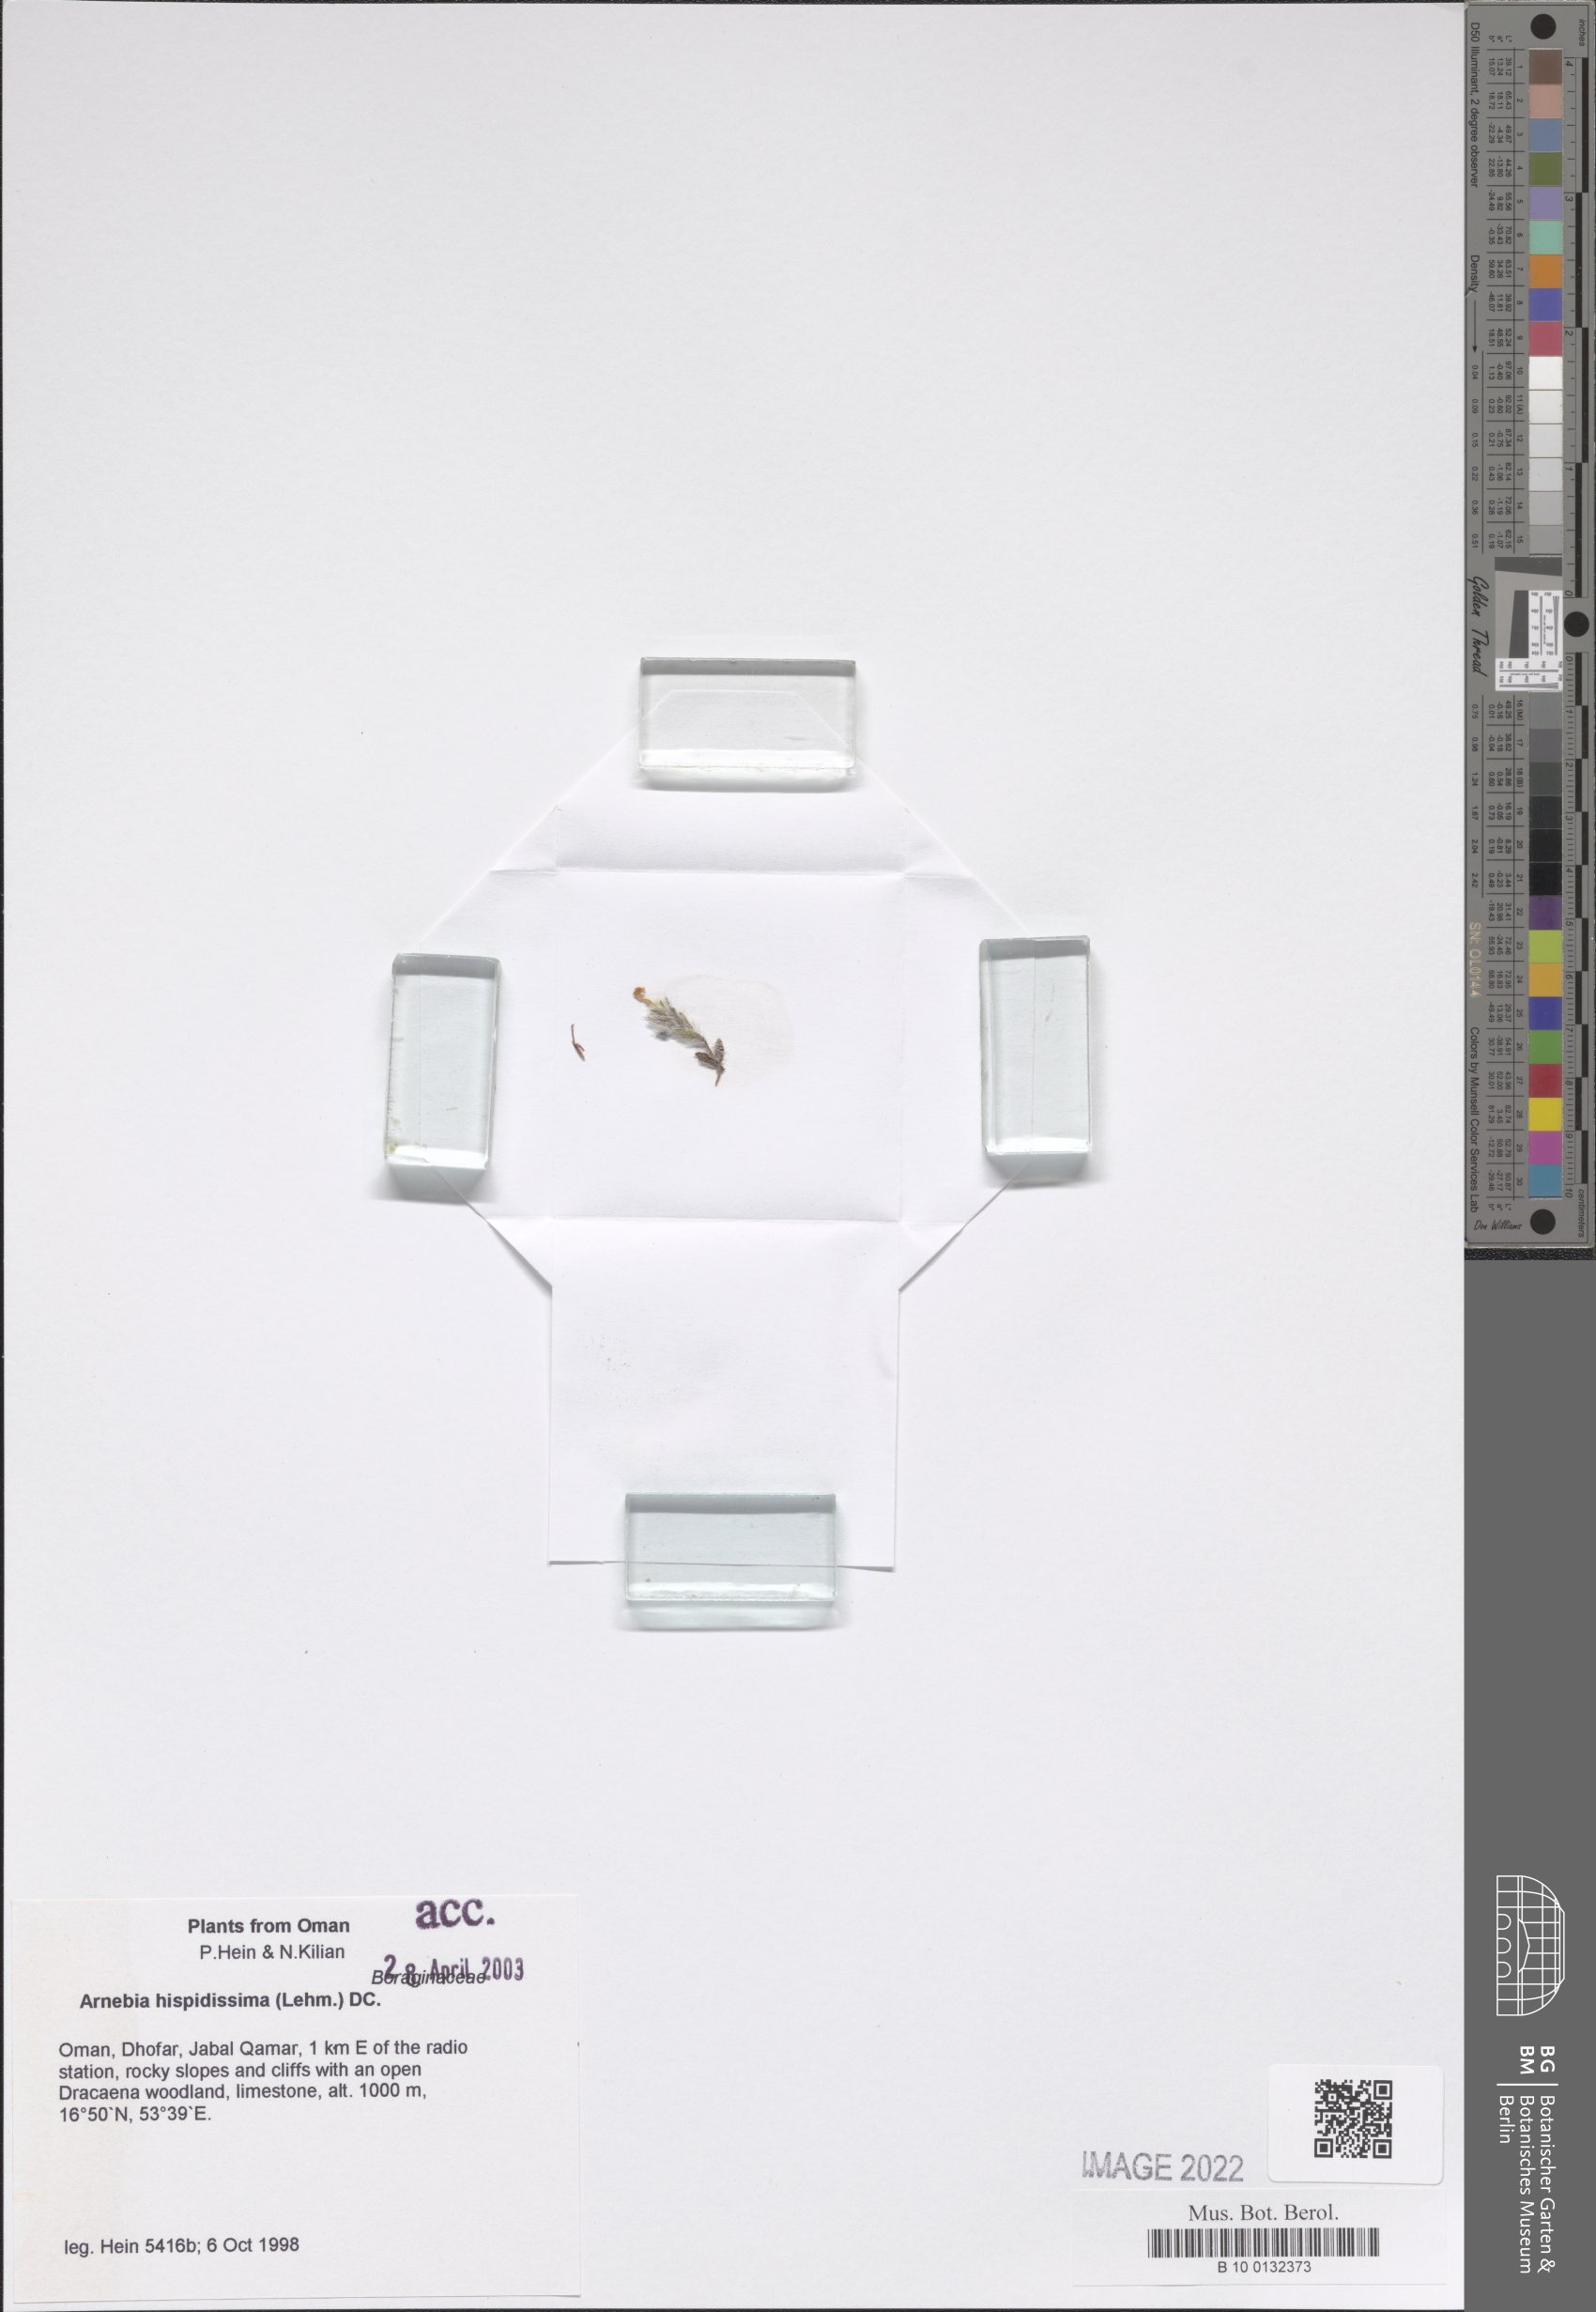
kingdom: Plantae
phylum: Tracheophyta
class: Magnoliopsida
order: Boraginales
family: Boraginaceae
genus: Arnebia
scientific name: Arnebia hispidissima
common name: Arabian-primrose
